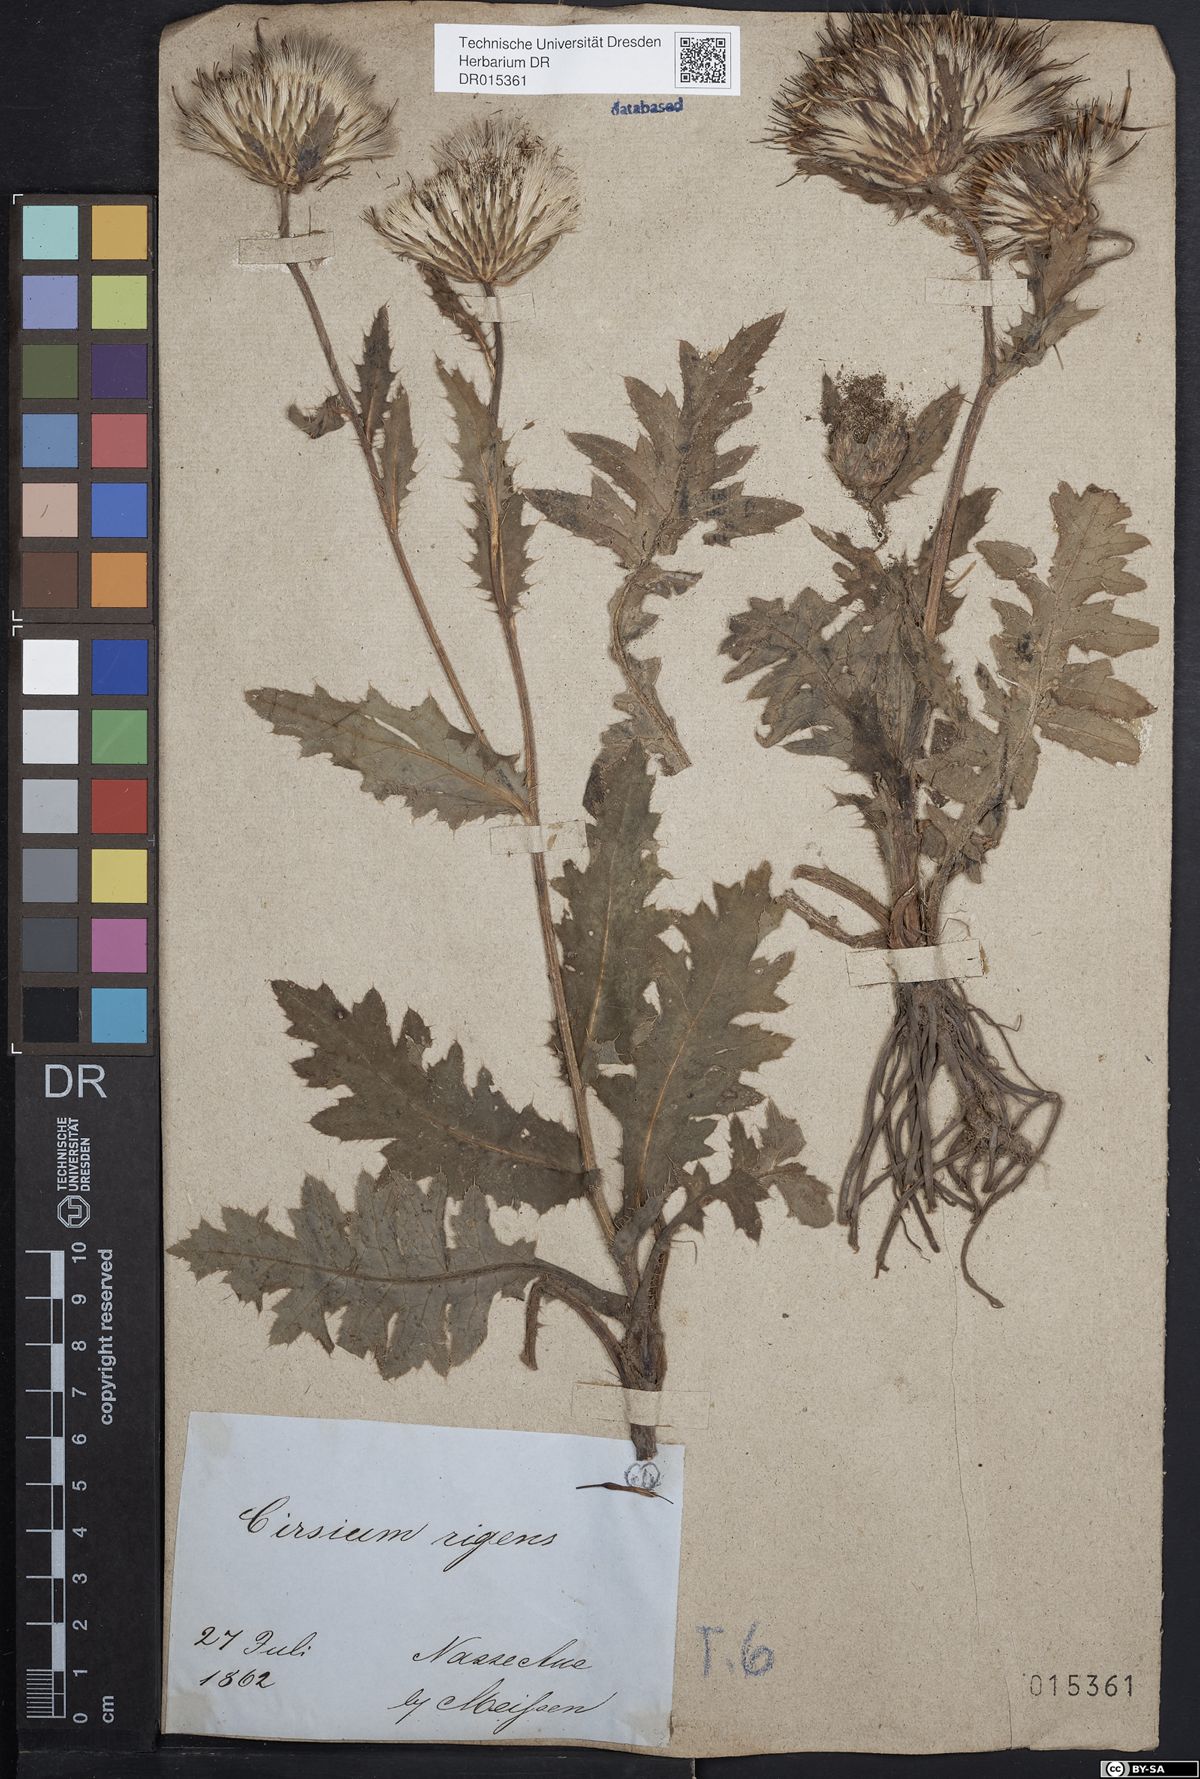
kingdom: Plantae
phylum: Tracheophyta
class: Magnoliopsida
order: Asterales
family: Asteraceae
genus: Cirsium
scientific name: Cirsium rigens
